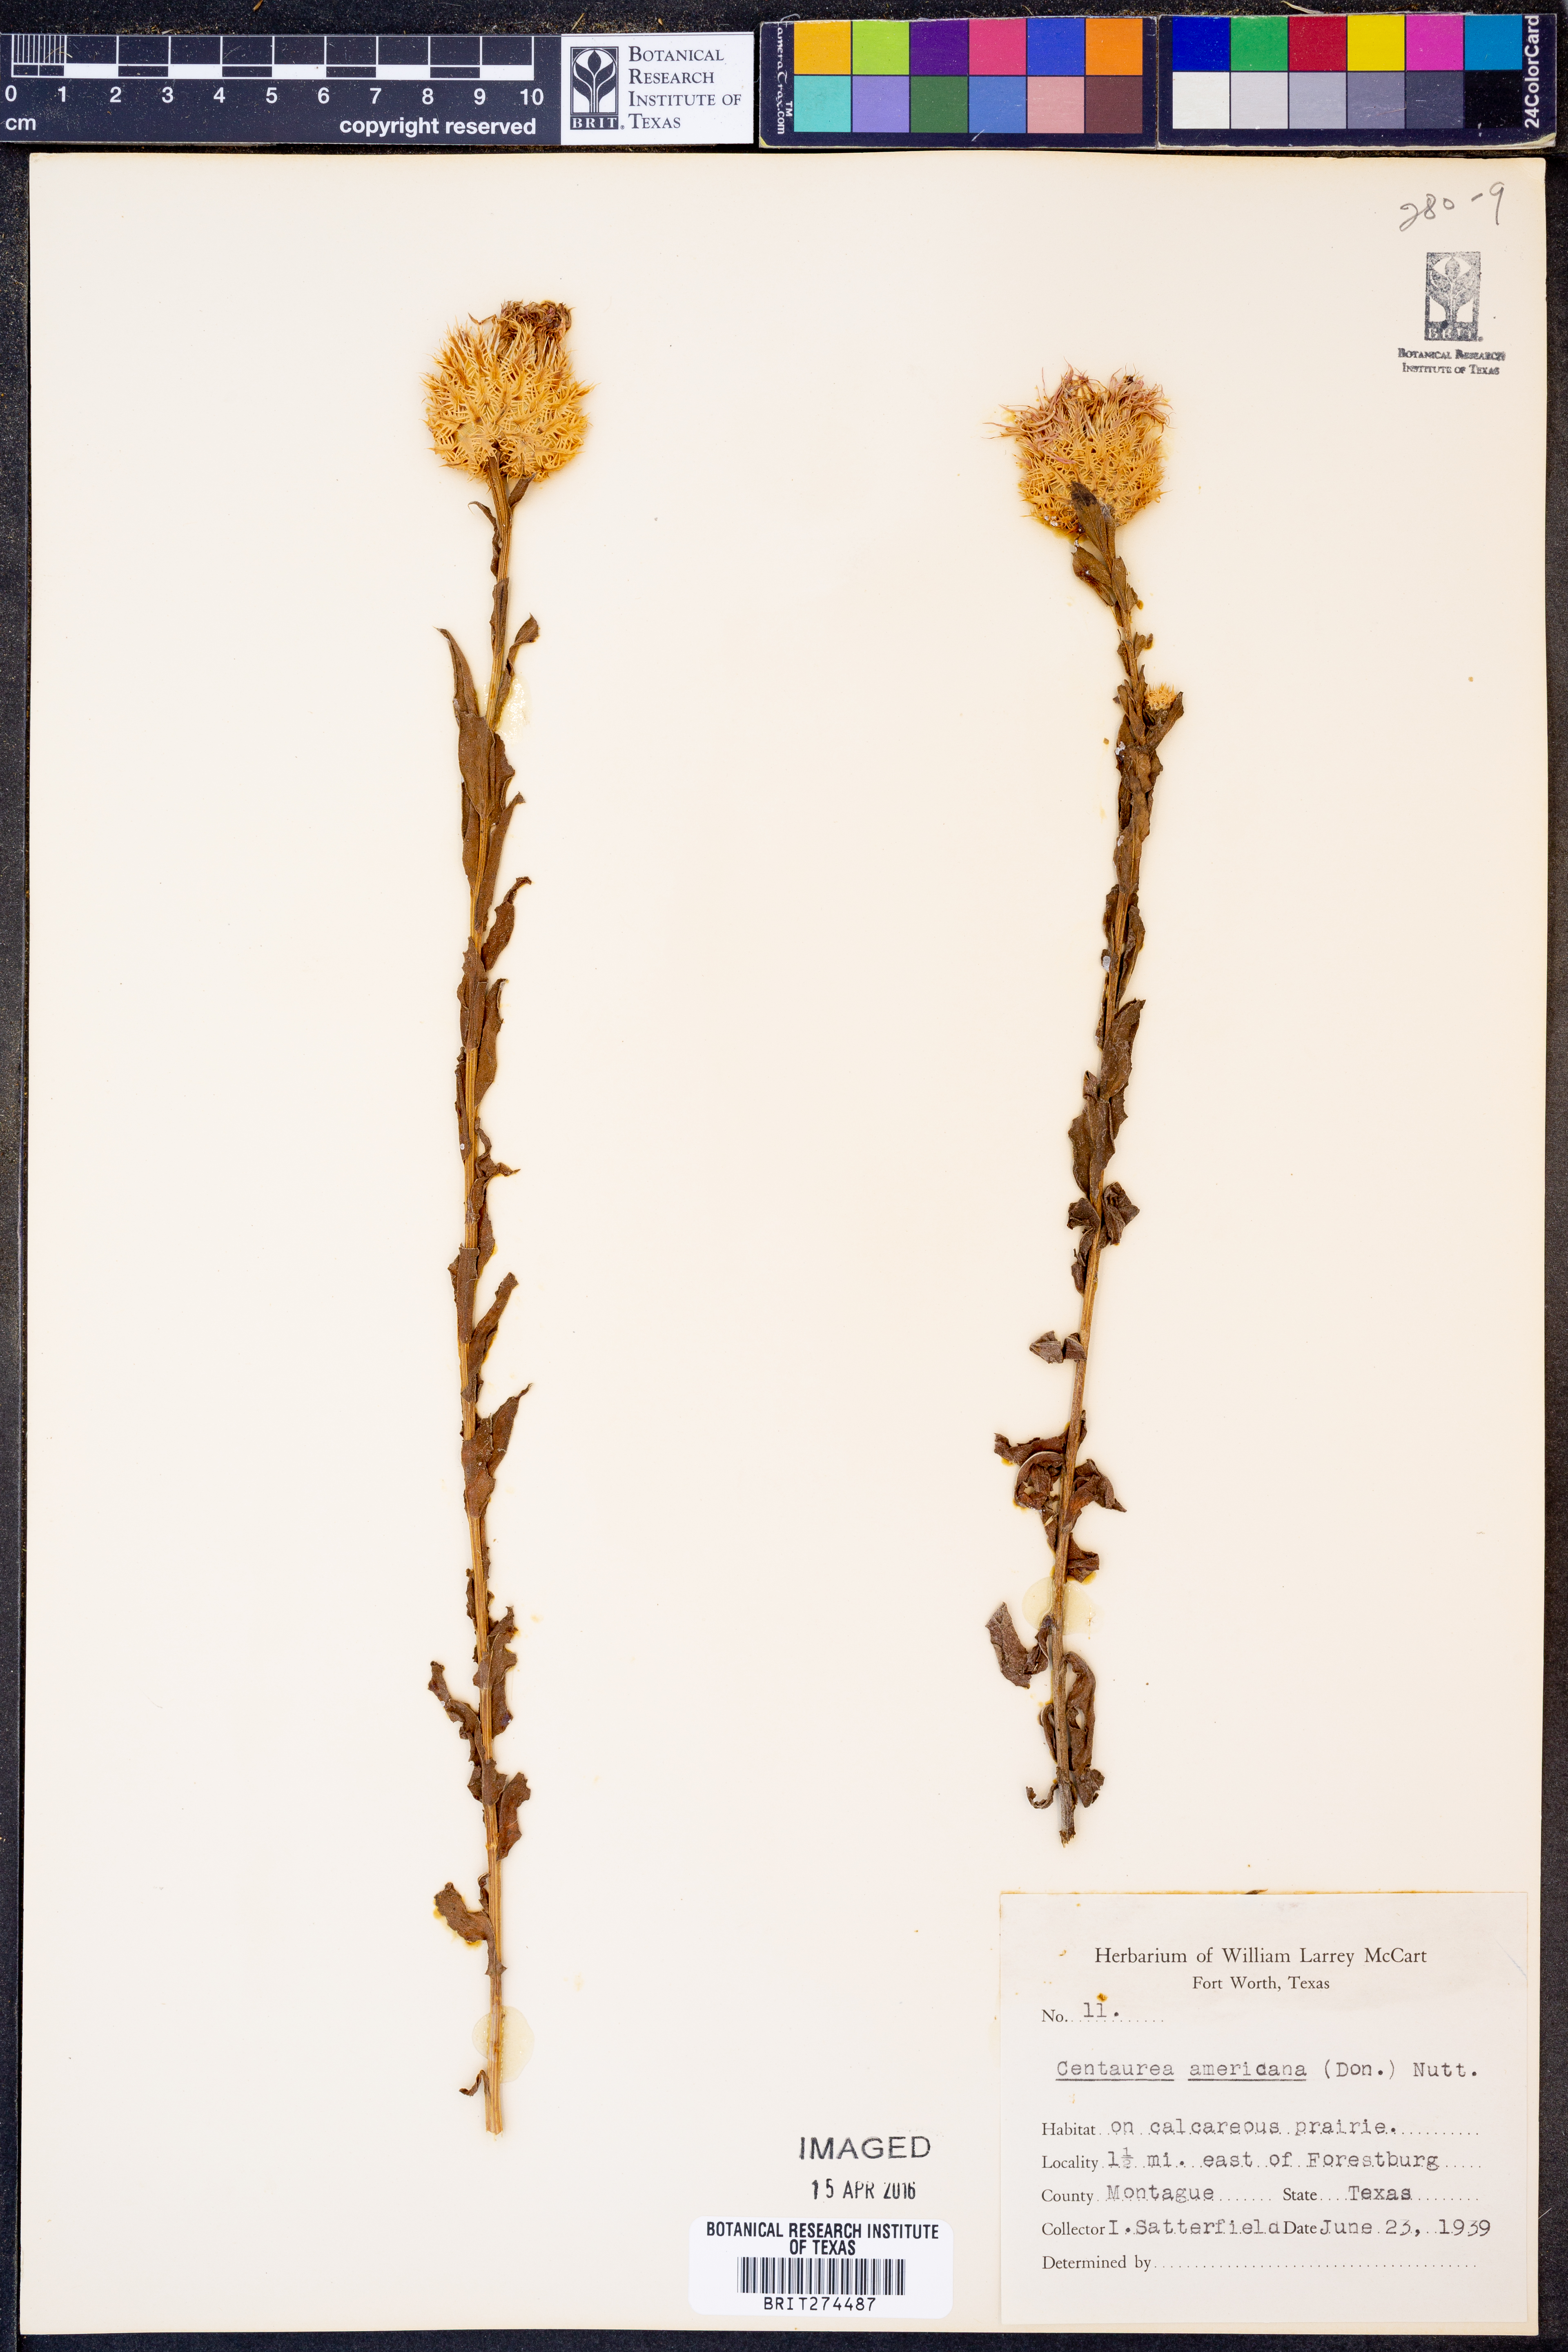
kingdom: Plantae
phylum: Tracheophyta
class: Magnoliopsida
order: Asterales
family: Asteraceae
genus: Plectocephalus
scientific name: Plectocephalus americanus
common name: American basket-flower
